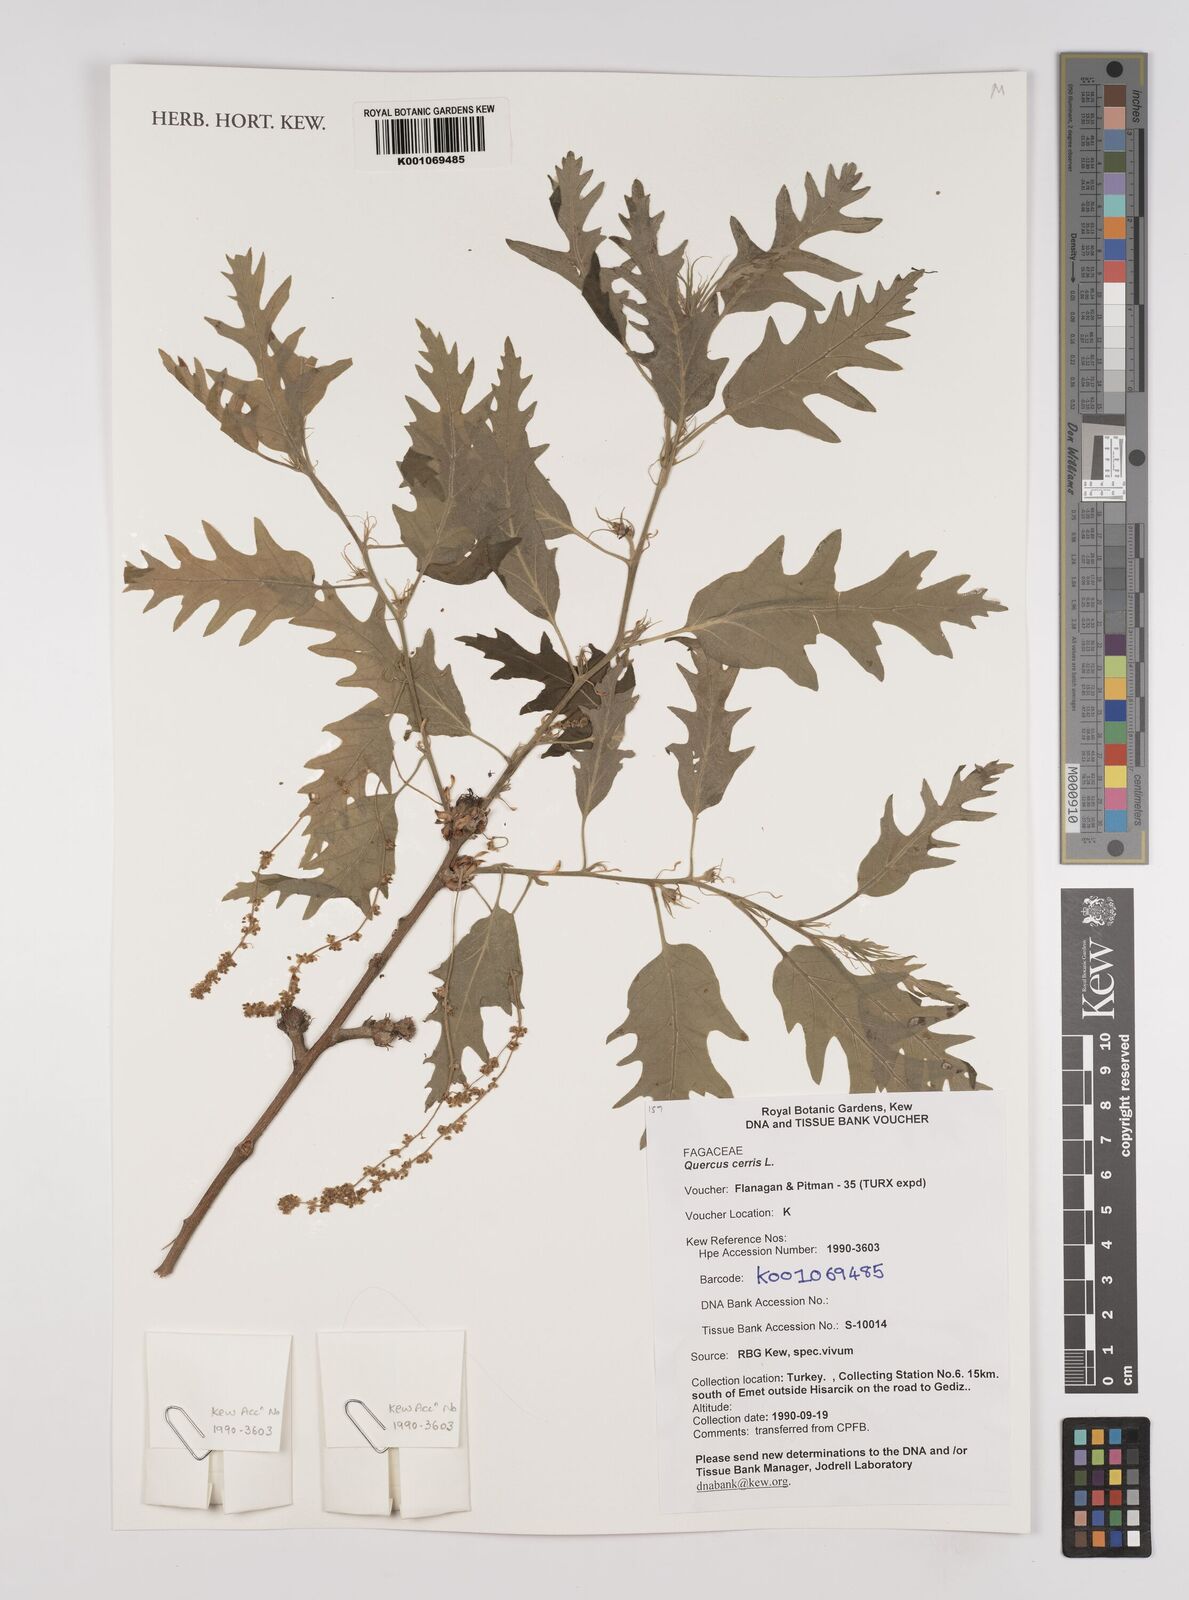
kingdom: Plantae
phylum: Tracheophyta
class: Magnoliopsida
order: Fagales
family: Fagaceae
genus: Quercus
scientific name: Quercus cerris
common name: Turkey oak
